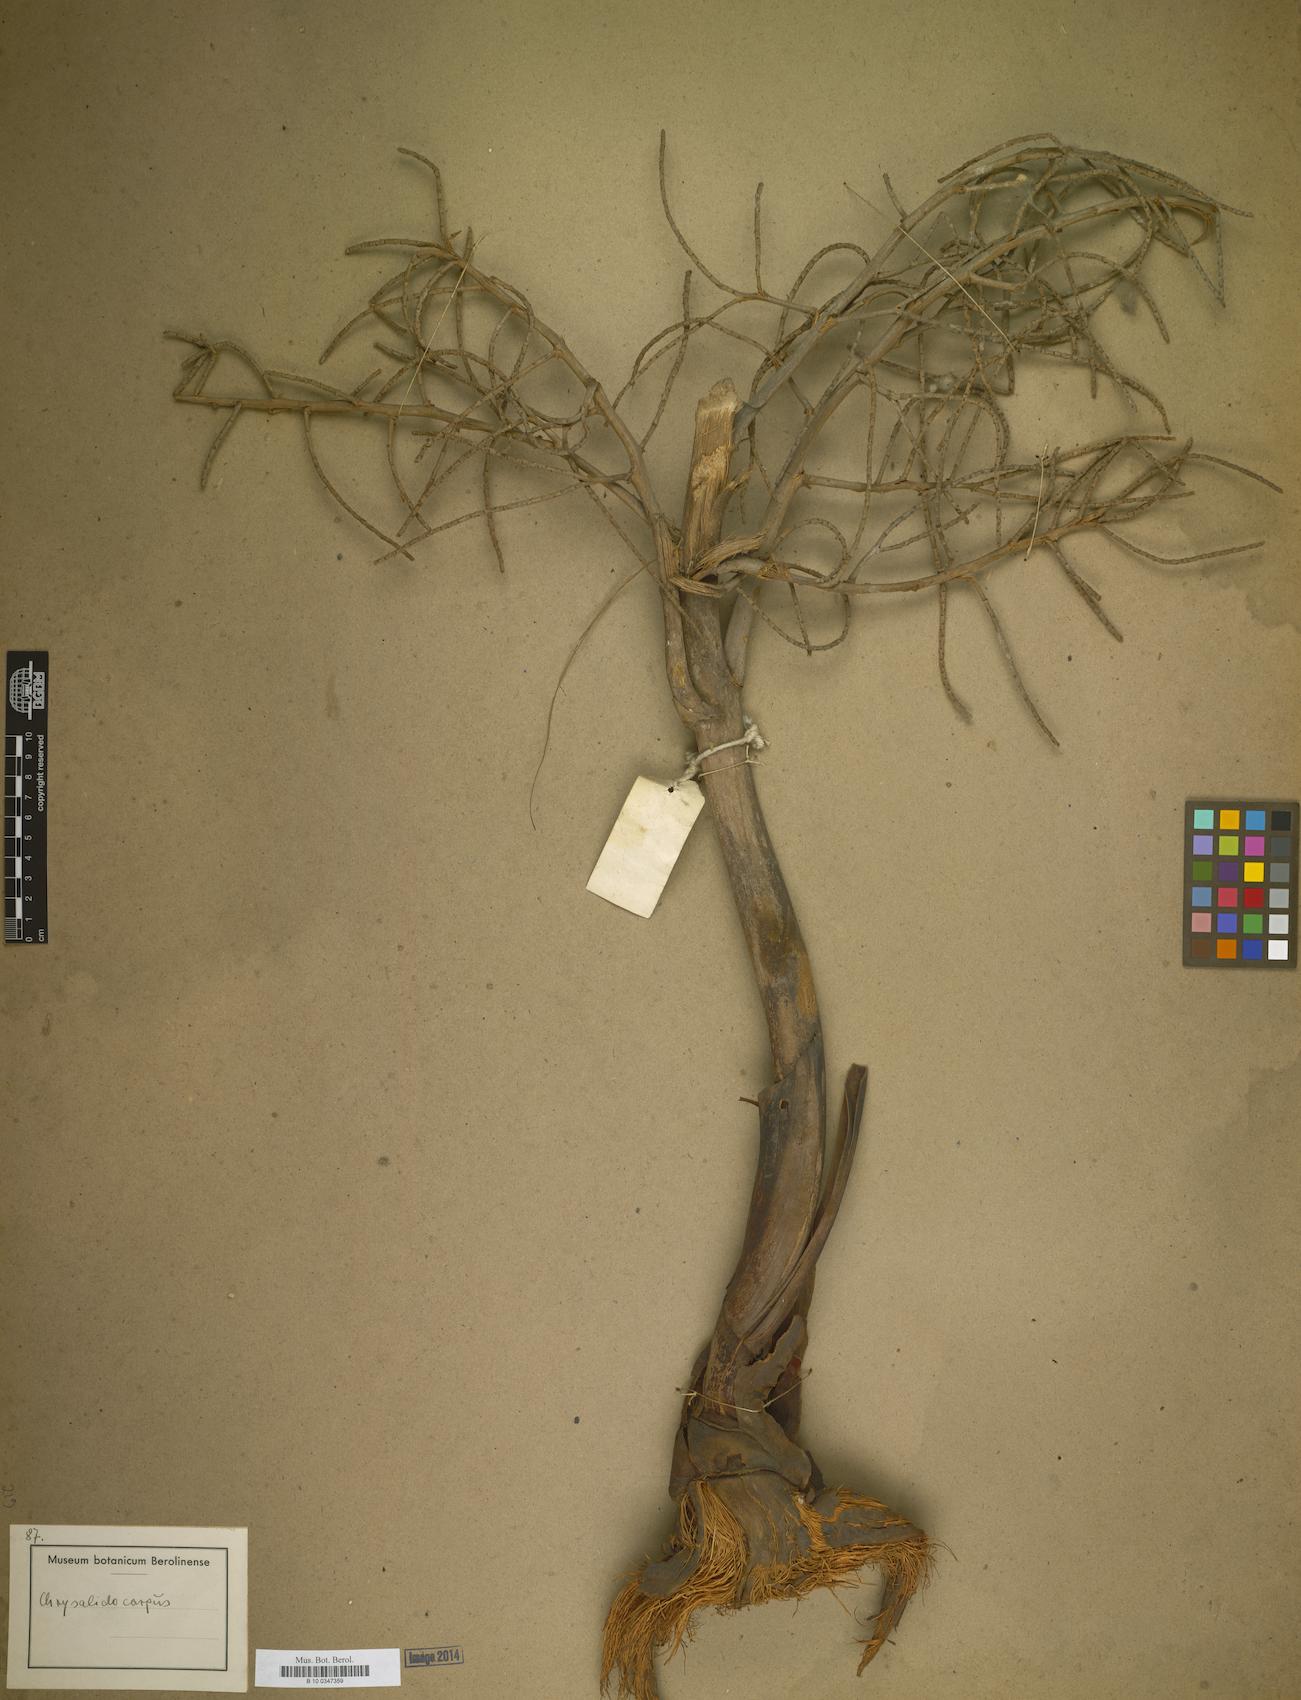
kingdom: Plantae
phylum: Tracheophyta
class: Liliopsida
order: Arecales
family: Arecaceae
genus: Dypsis
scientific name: Dypsis
